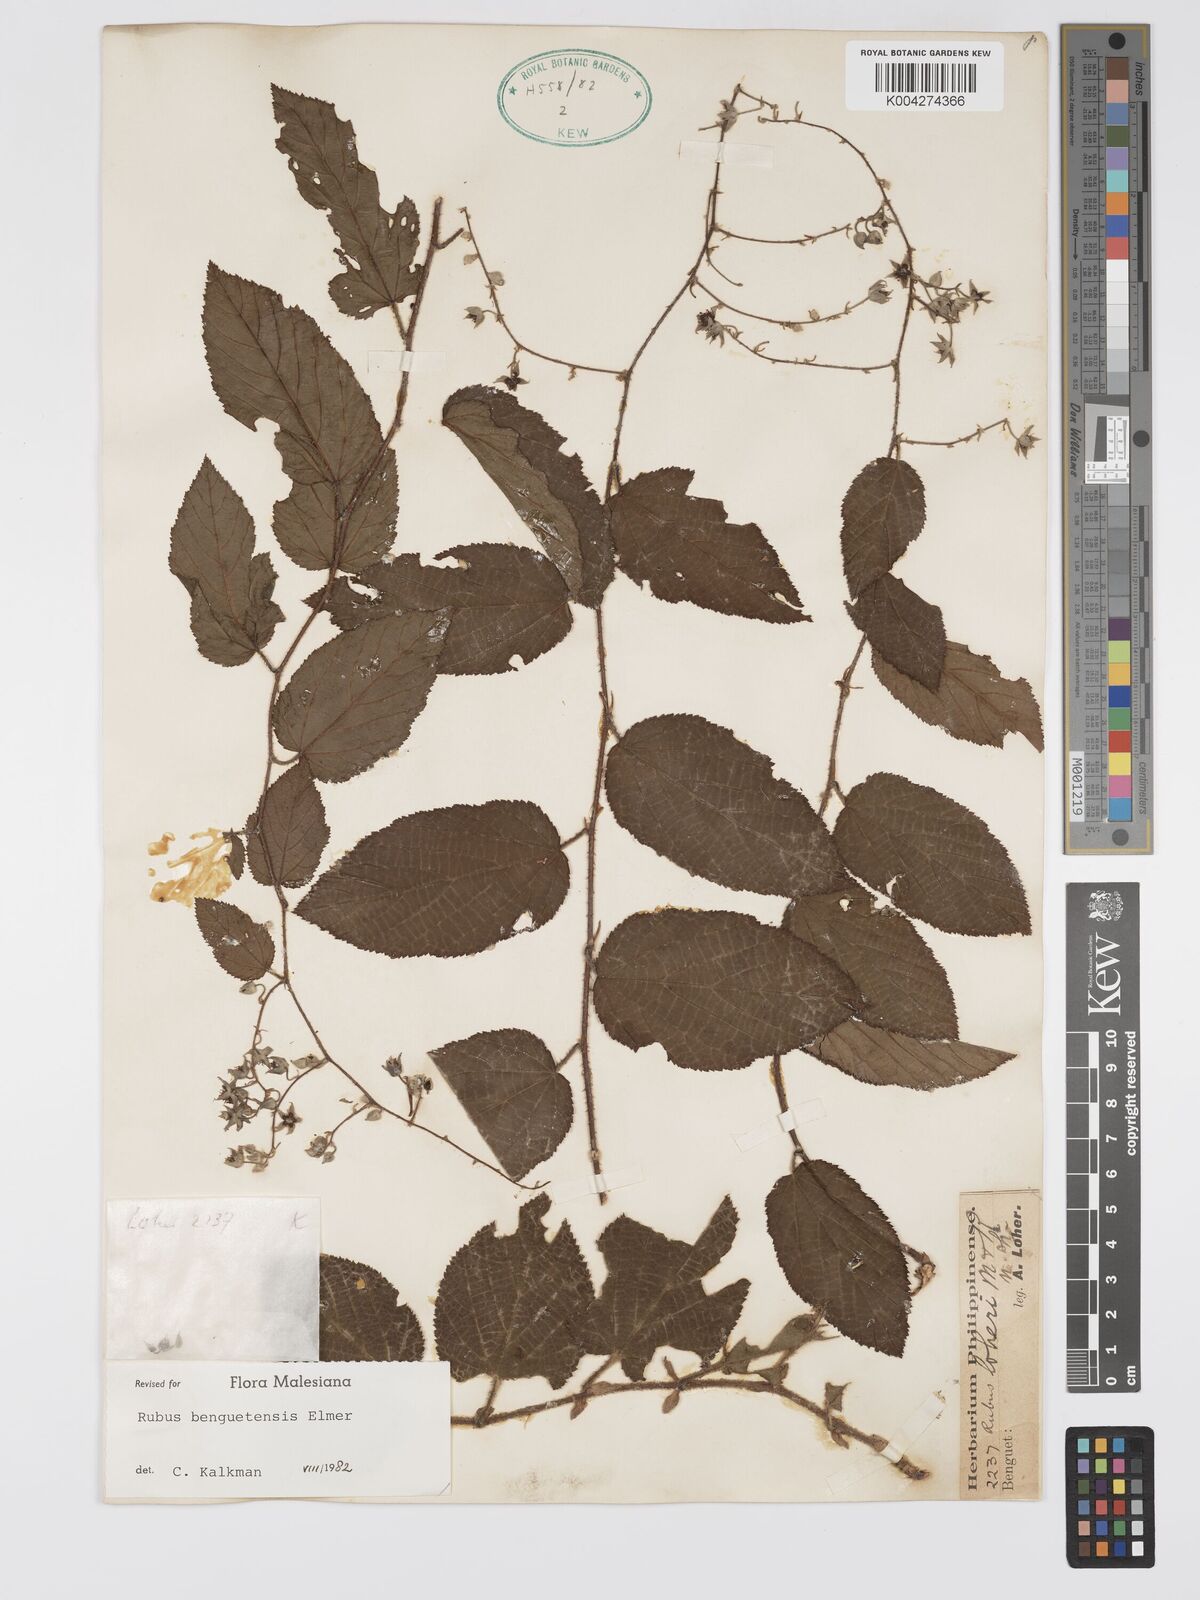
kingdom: Plantae
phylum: Tracheophyta
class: Magnoliopsida
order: Rosales
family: Rosaceae
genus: Rubus
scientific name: Rubus benguetensis
